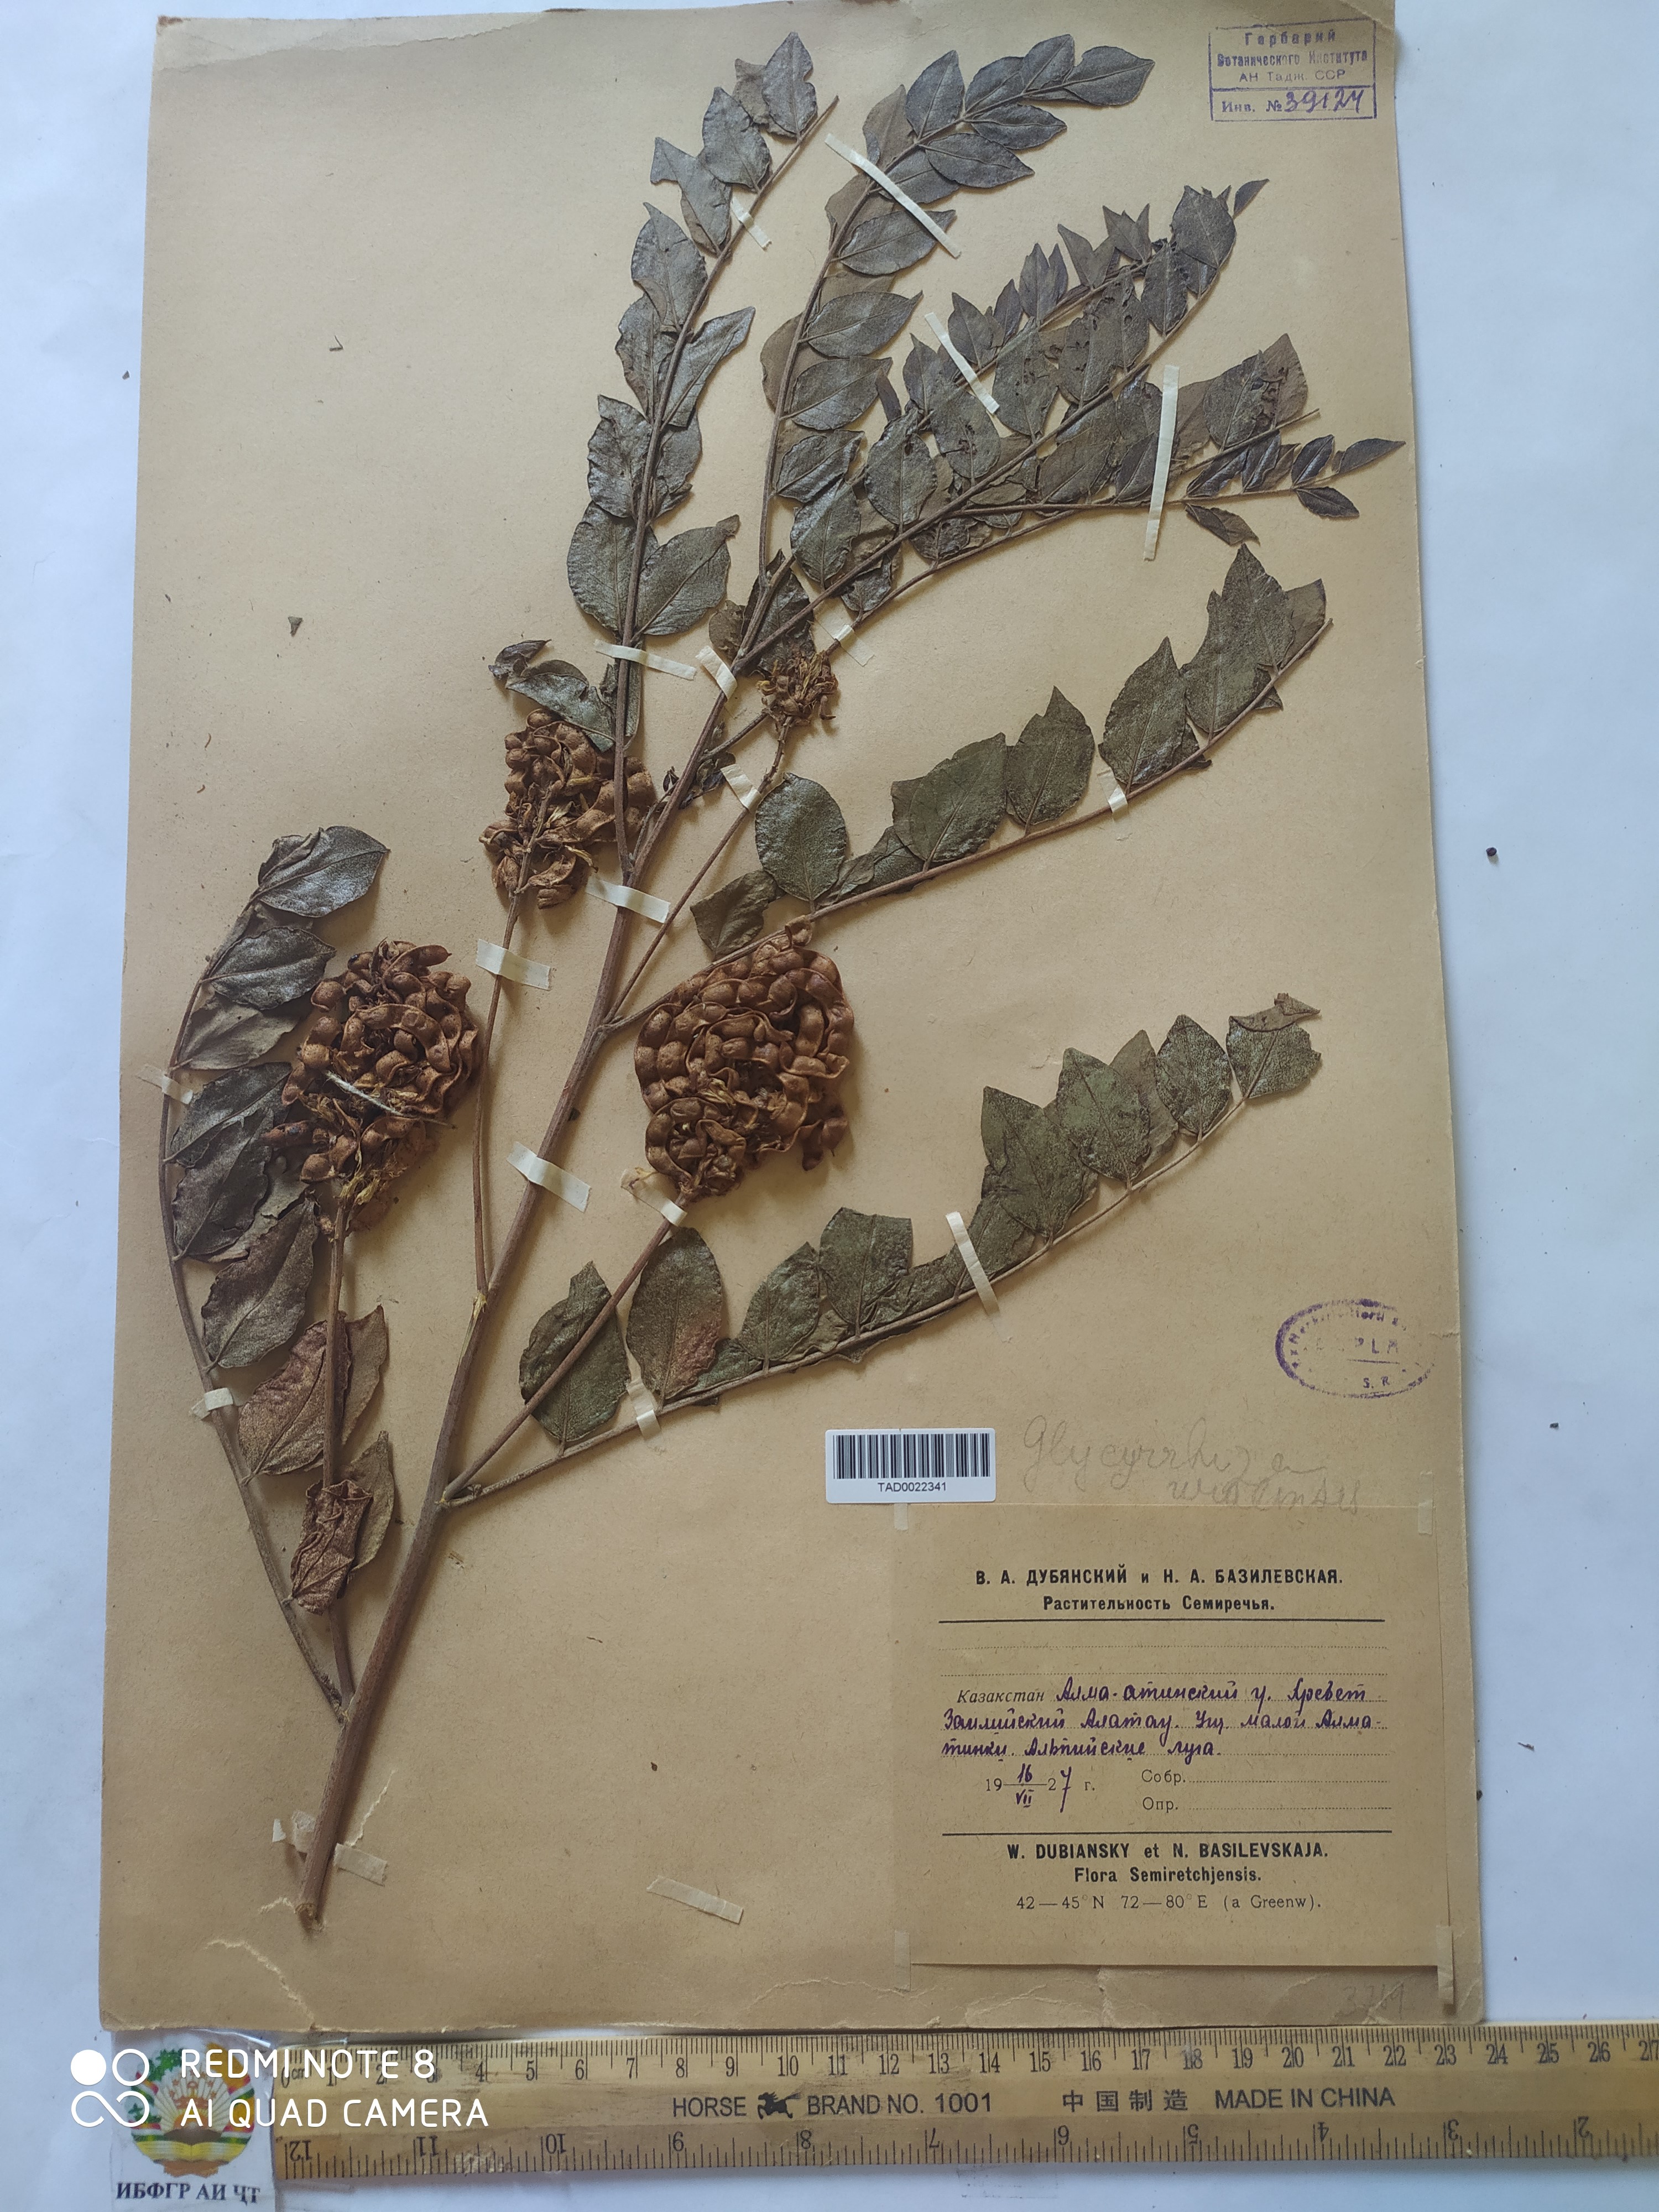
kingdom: Plantae
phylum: Tracheophyta
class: Magnoliopsida
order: Fabales
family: Fabaceae
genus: Glycyrrhiza
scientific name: Glycyrrhiza uralensis
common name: Chinese licorice
